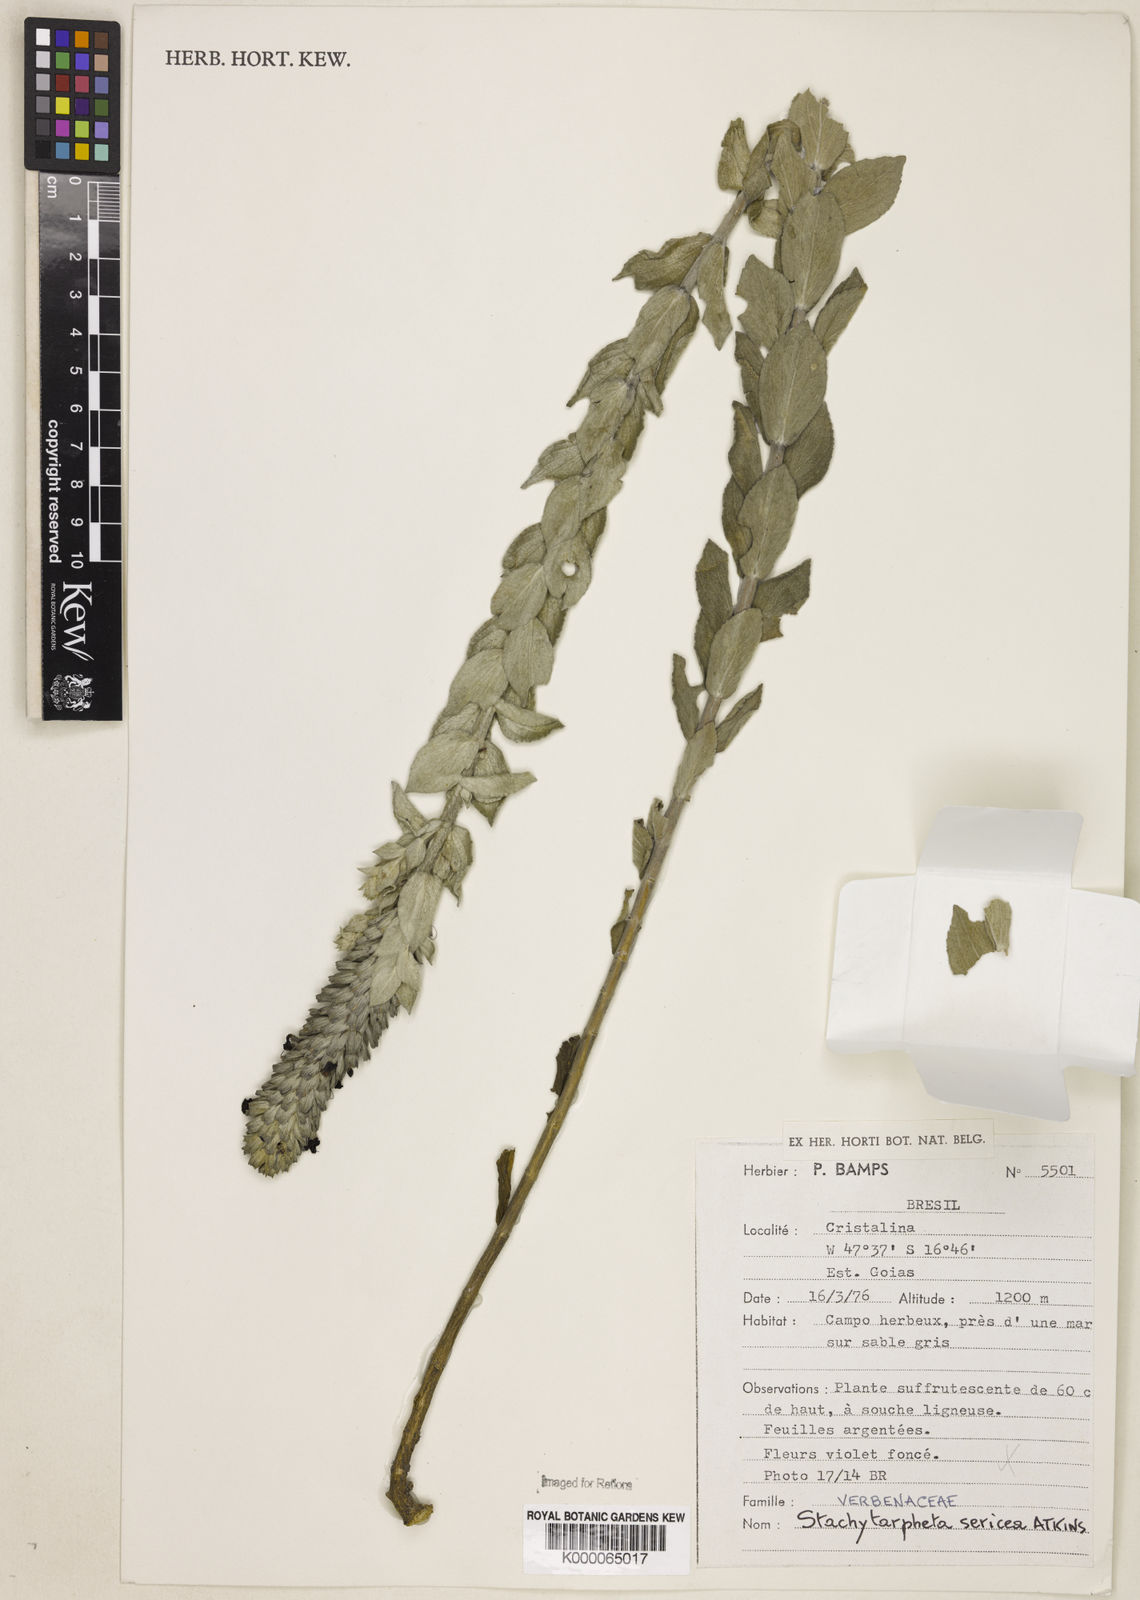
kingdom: Plantae
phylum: Tracheophyta
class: Magnoliopsida
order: Lamiales
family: Verbenaceae
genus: Stachytarpheta
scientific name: Stachytarpheta sericea
